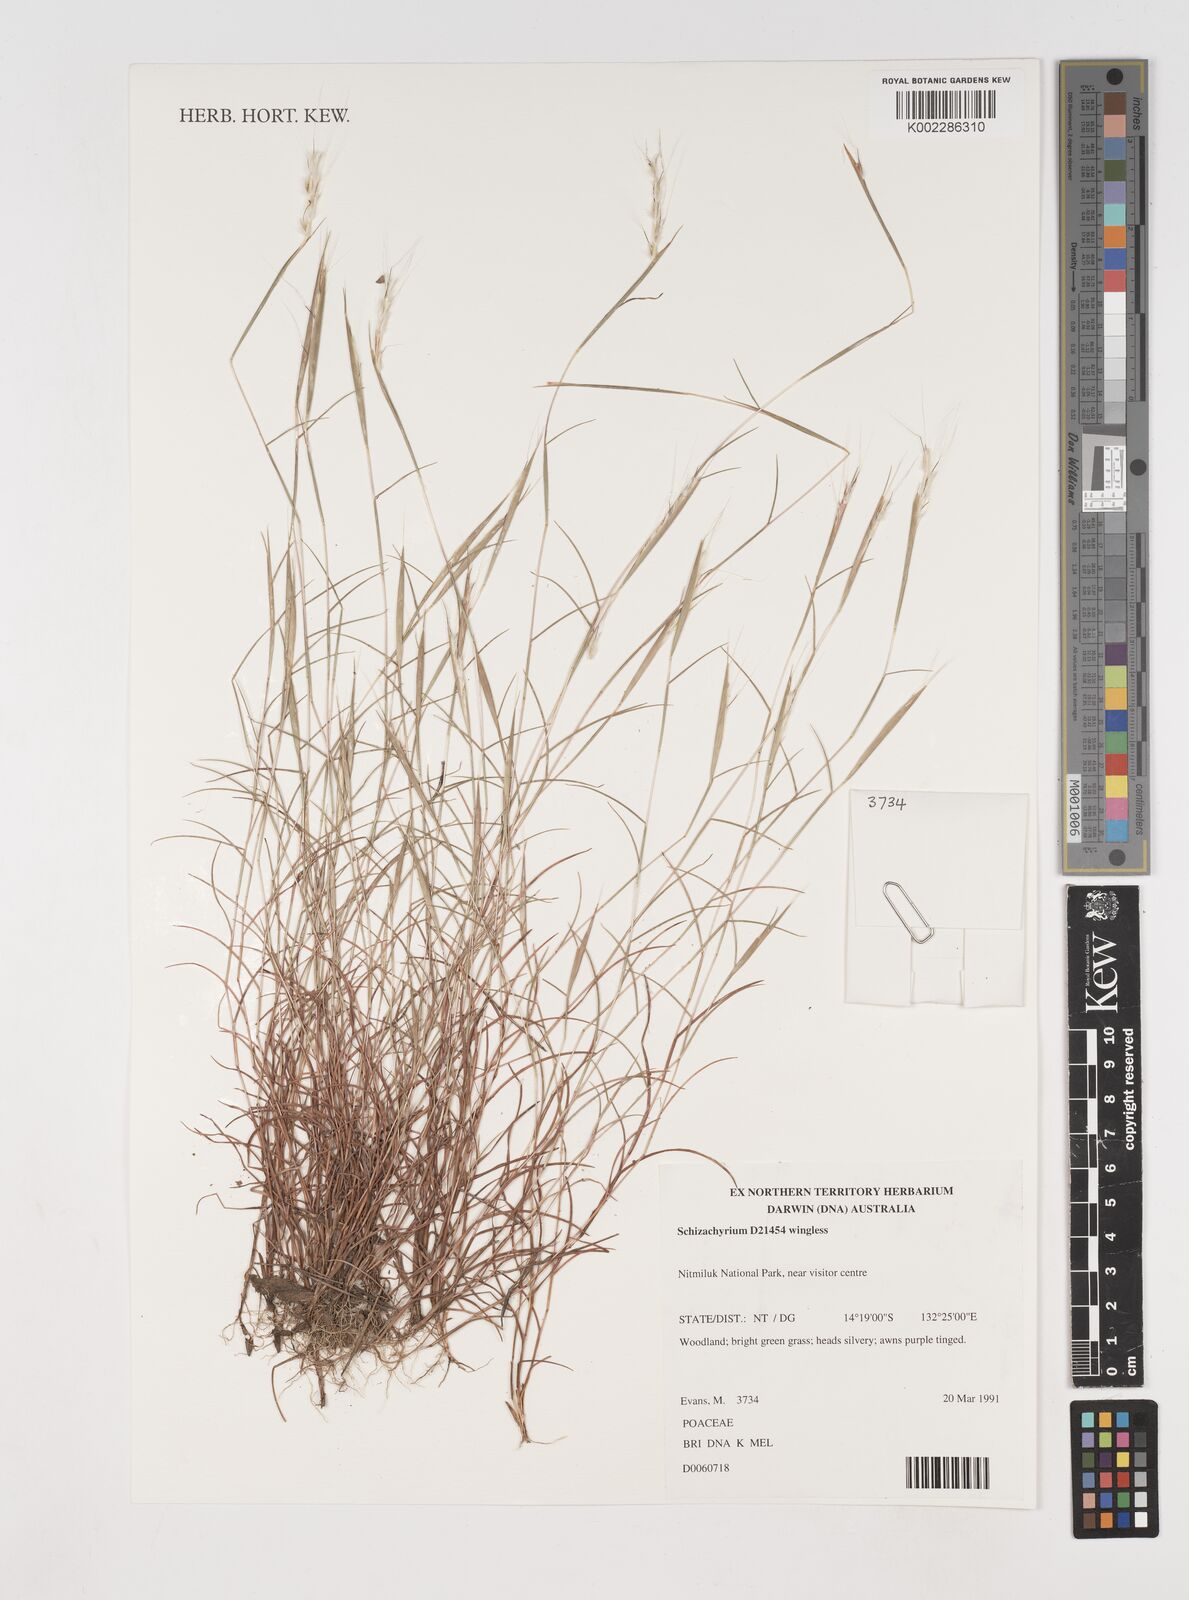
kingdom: Plantae
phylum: Tracheophyta
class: Liliopsida
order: Poales
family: Poaceae
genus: Schizachyrium
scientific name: Schizachyrium
